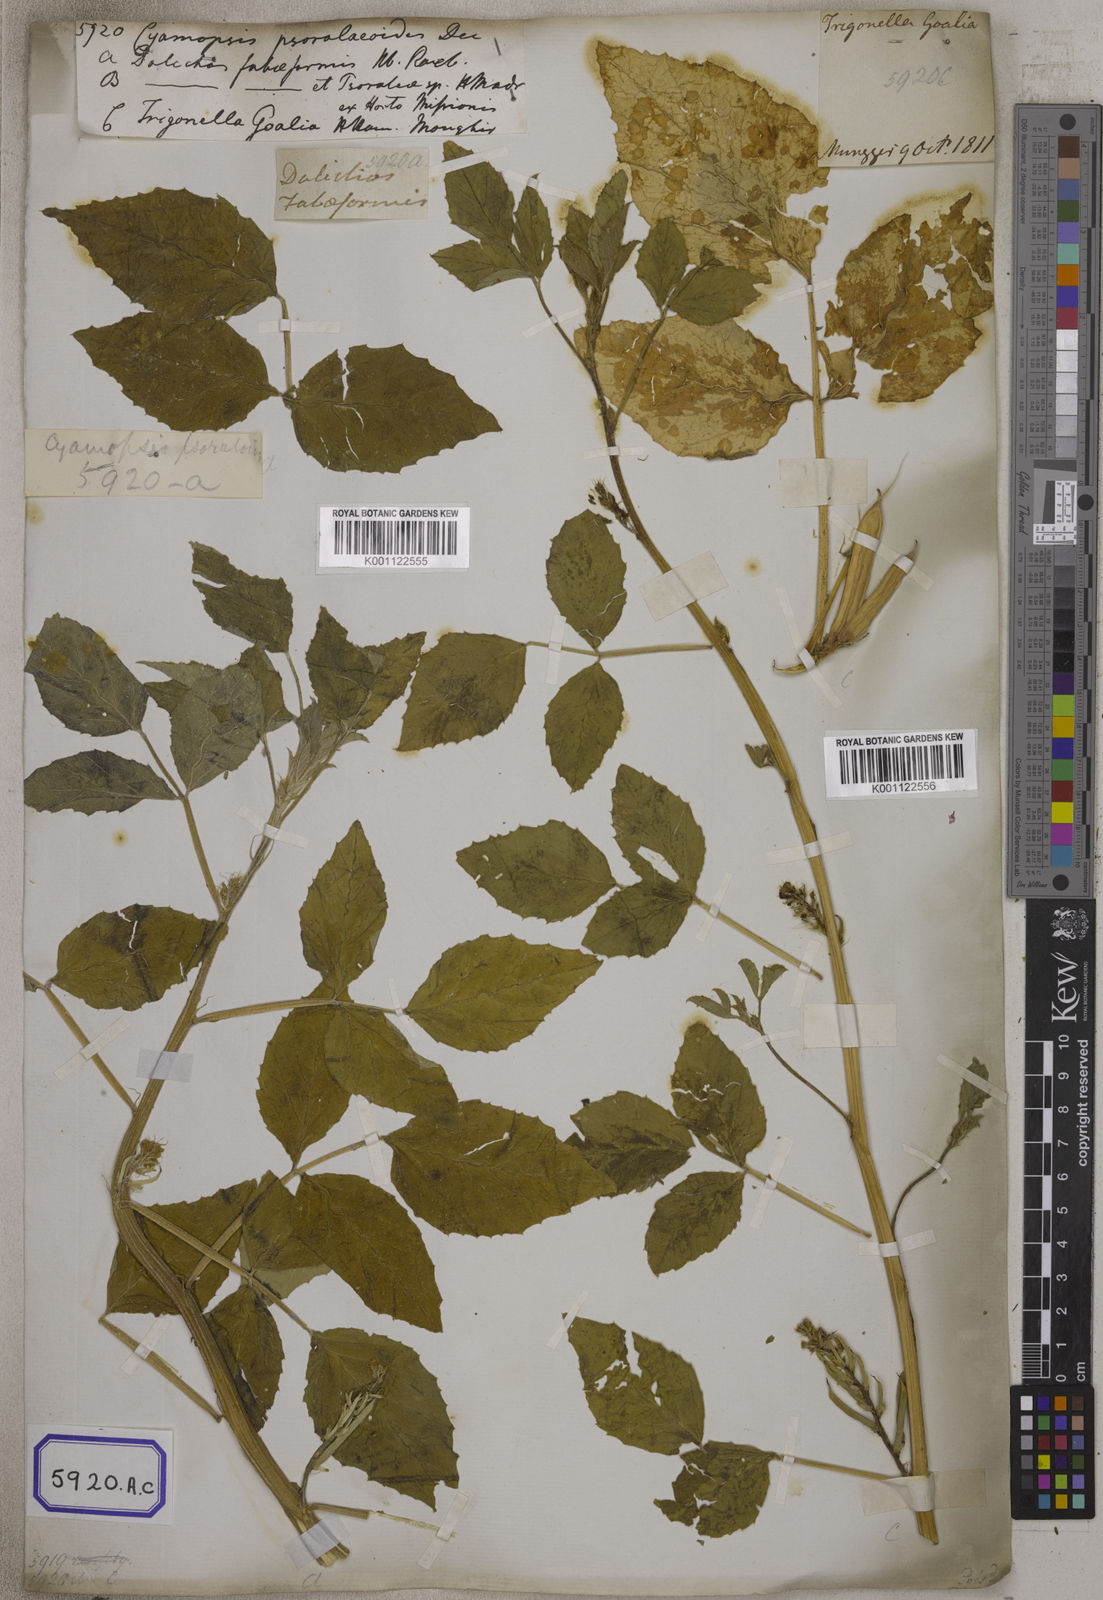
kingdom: Plantae
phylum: Tracheophyta
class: Magnoliopsida
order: Fabales
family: Fabaceae
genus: Cyamopsis
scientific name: Cyamopsis tetragonoloba
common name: Cluster-bean
